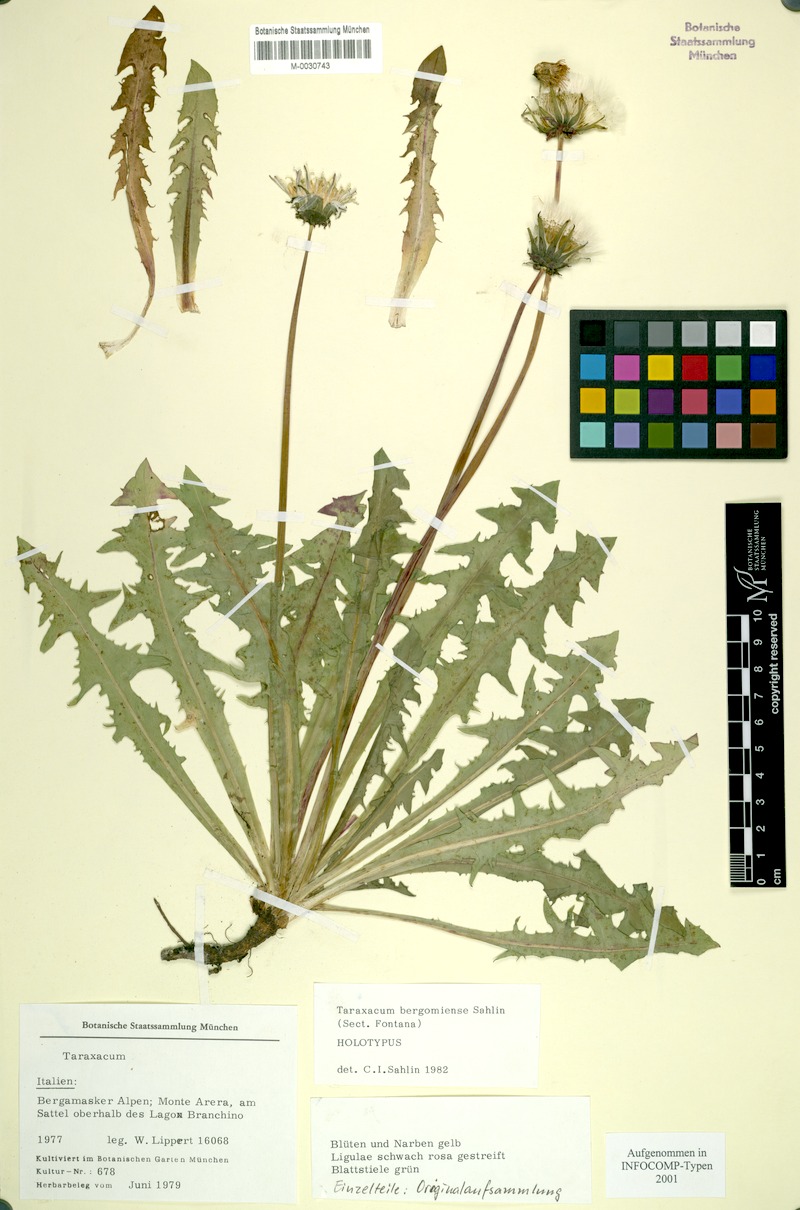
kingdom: Plantae
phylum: Tracheophyta
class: Magnoliopsida
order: Asterales
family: Asteraceae
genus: Taraxacum
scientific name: Taraxacum
